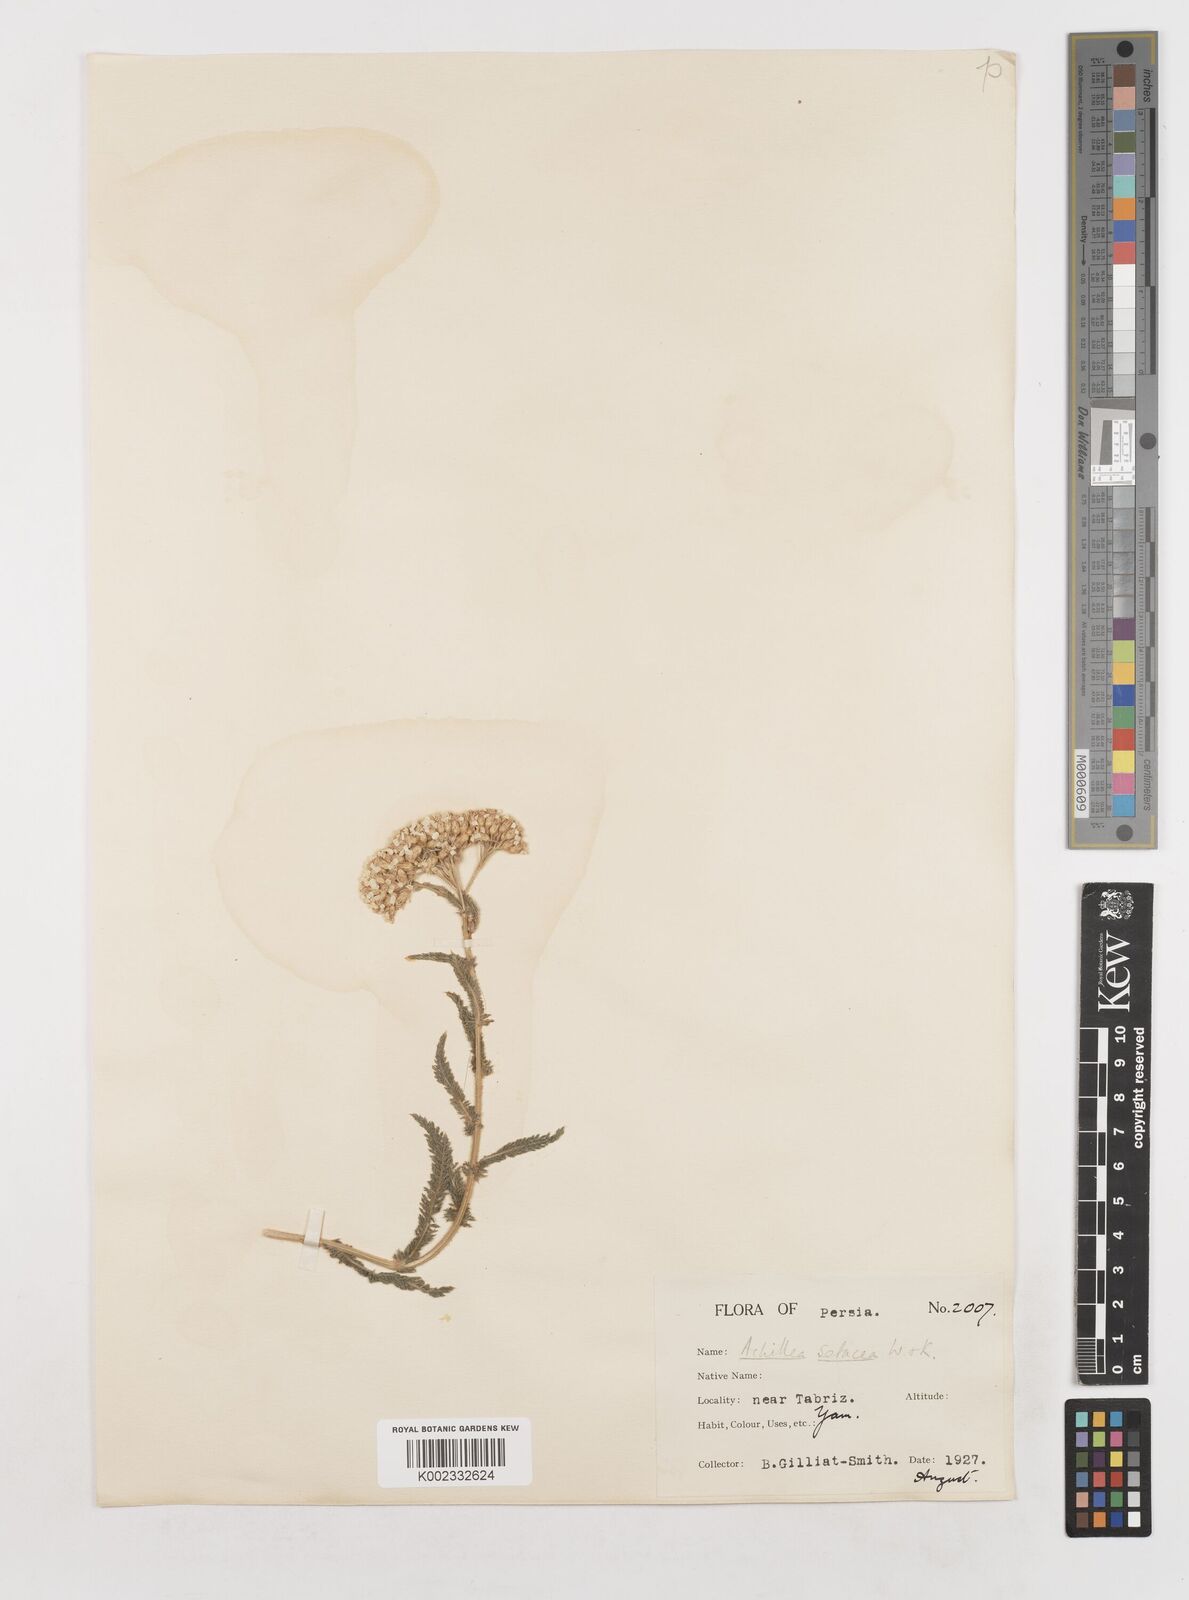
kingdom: Plantae
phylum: Tracheophyta
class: Magnoliopsida
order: Asterales
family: Asteraceae
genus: Achillea
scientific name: Achillea setacea
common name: Bristly yarrow
